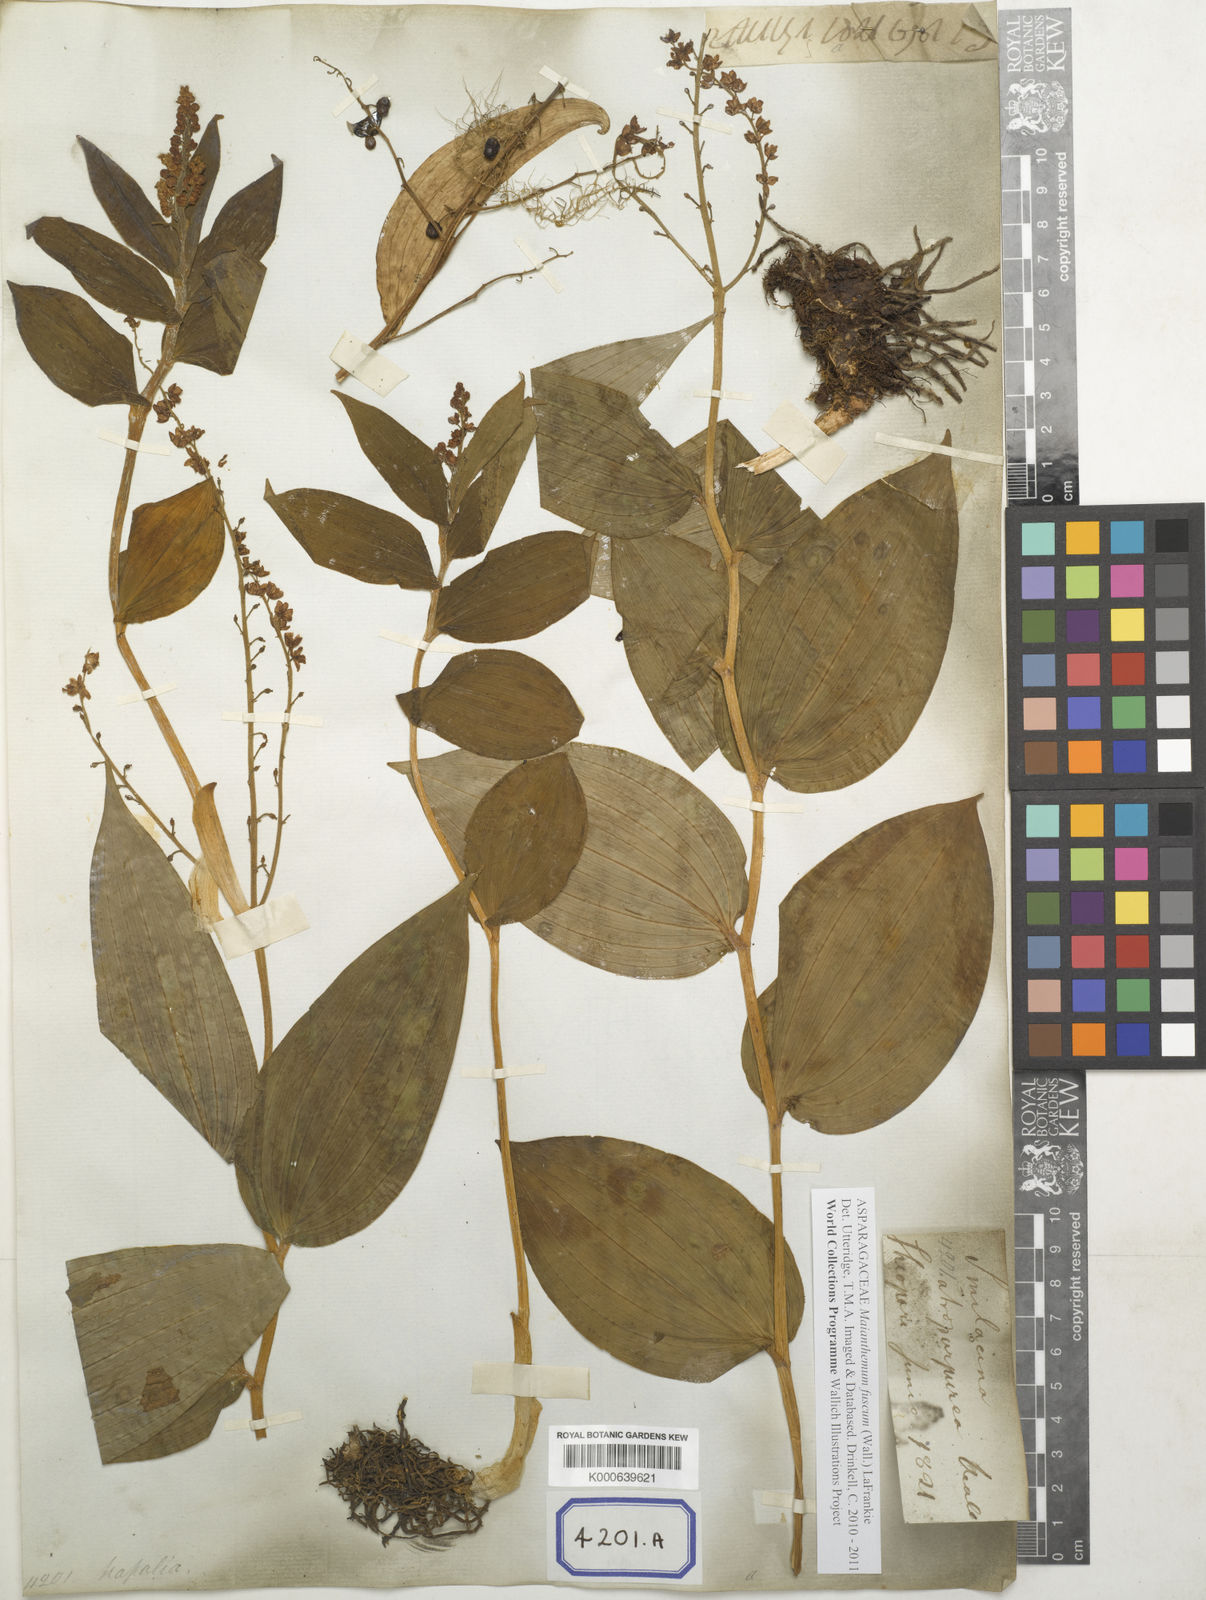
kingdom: Plantae
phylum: Tracheophyta
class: Liliopsida
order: Asparagales
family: Asparagaceae
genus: Maianthemum
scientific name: Maianthemum atropurpureum
